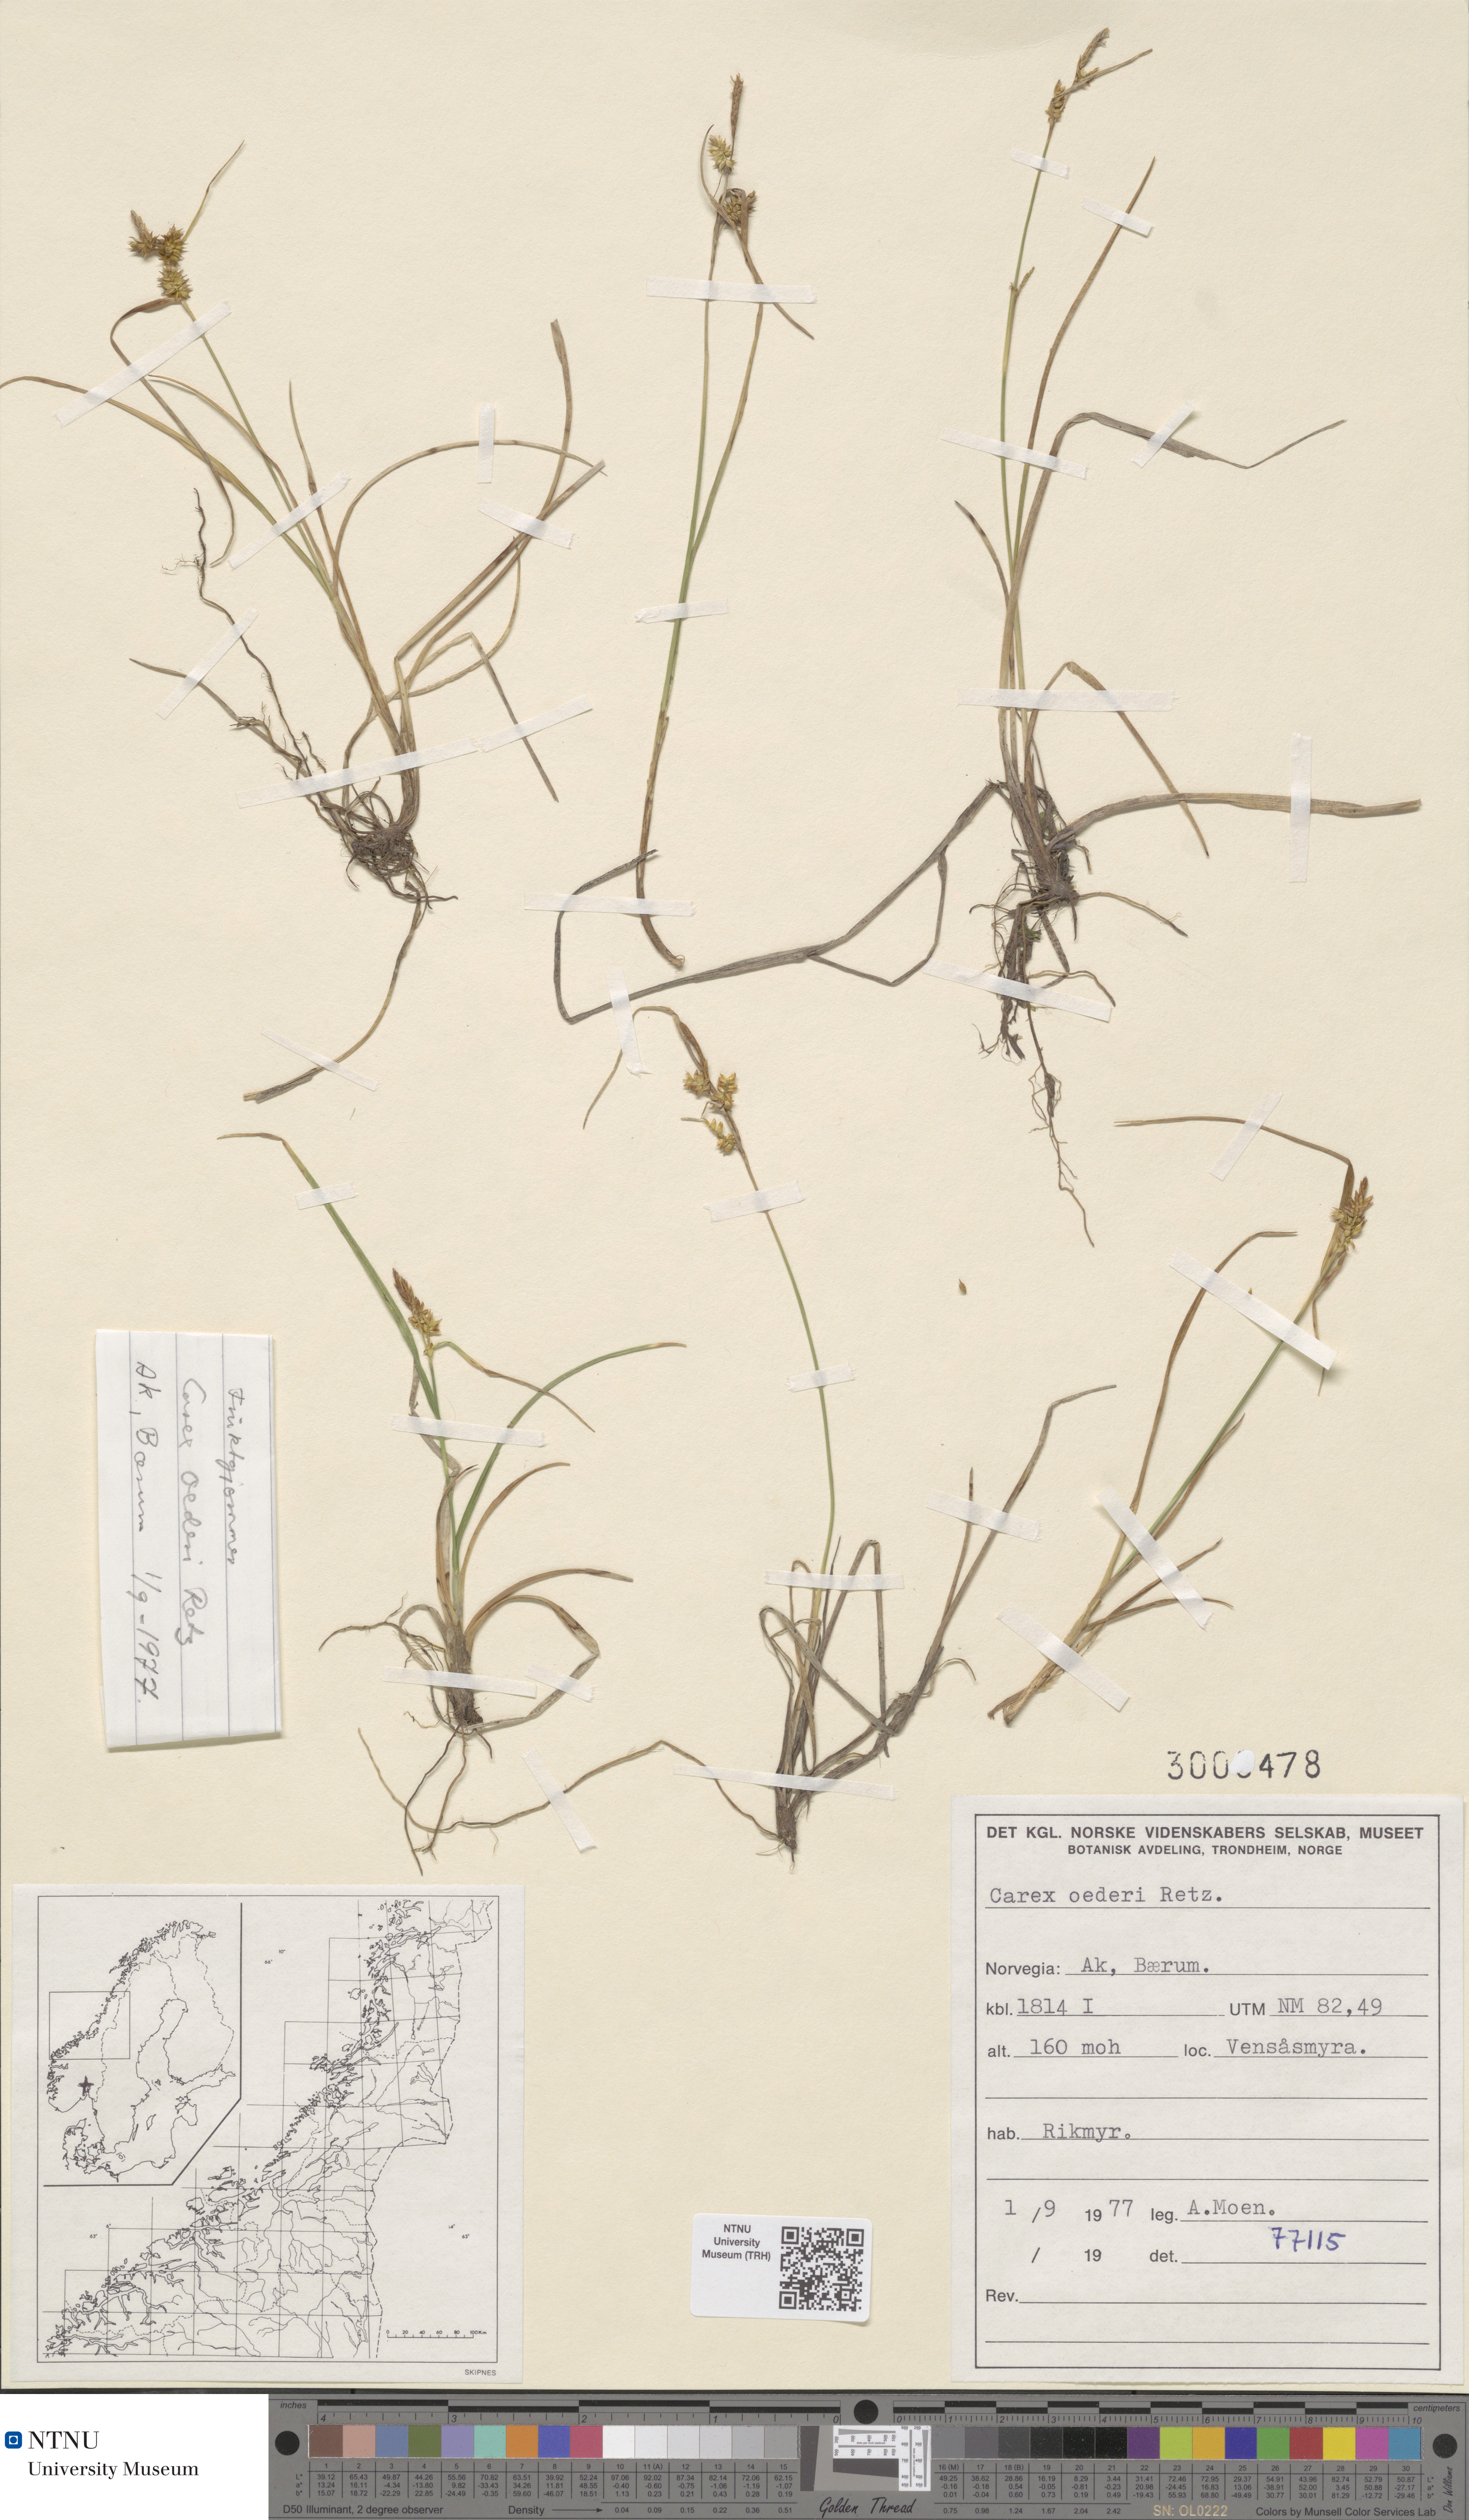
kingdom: Plantae
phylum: Tracheophyta
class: Liliopsida
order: Poales
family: Cyperaceae
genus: Carex
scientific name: Carex oederi
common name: Common & small-fruited yellow-sedge
